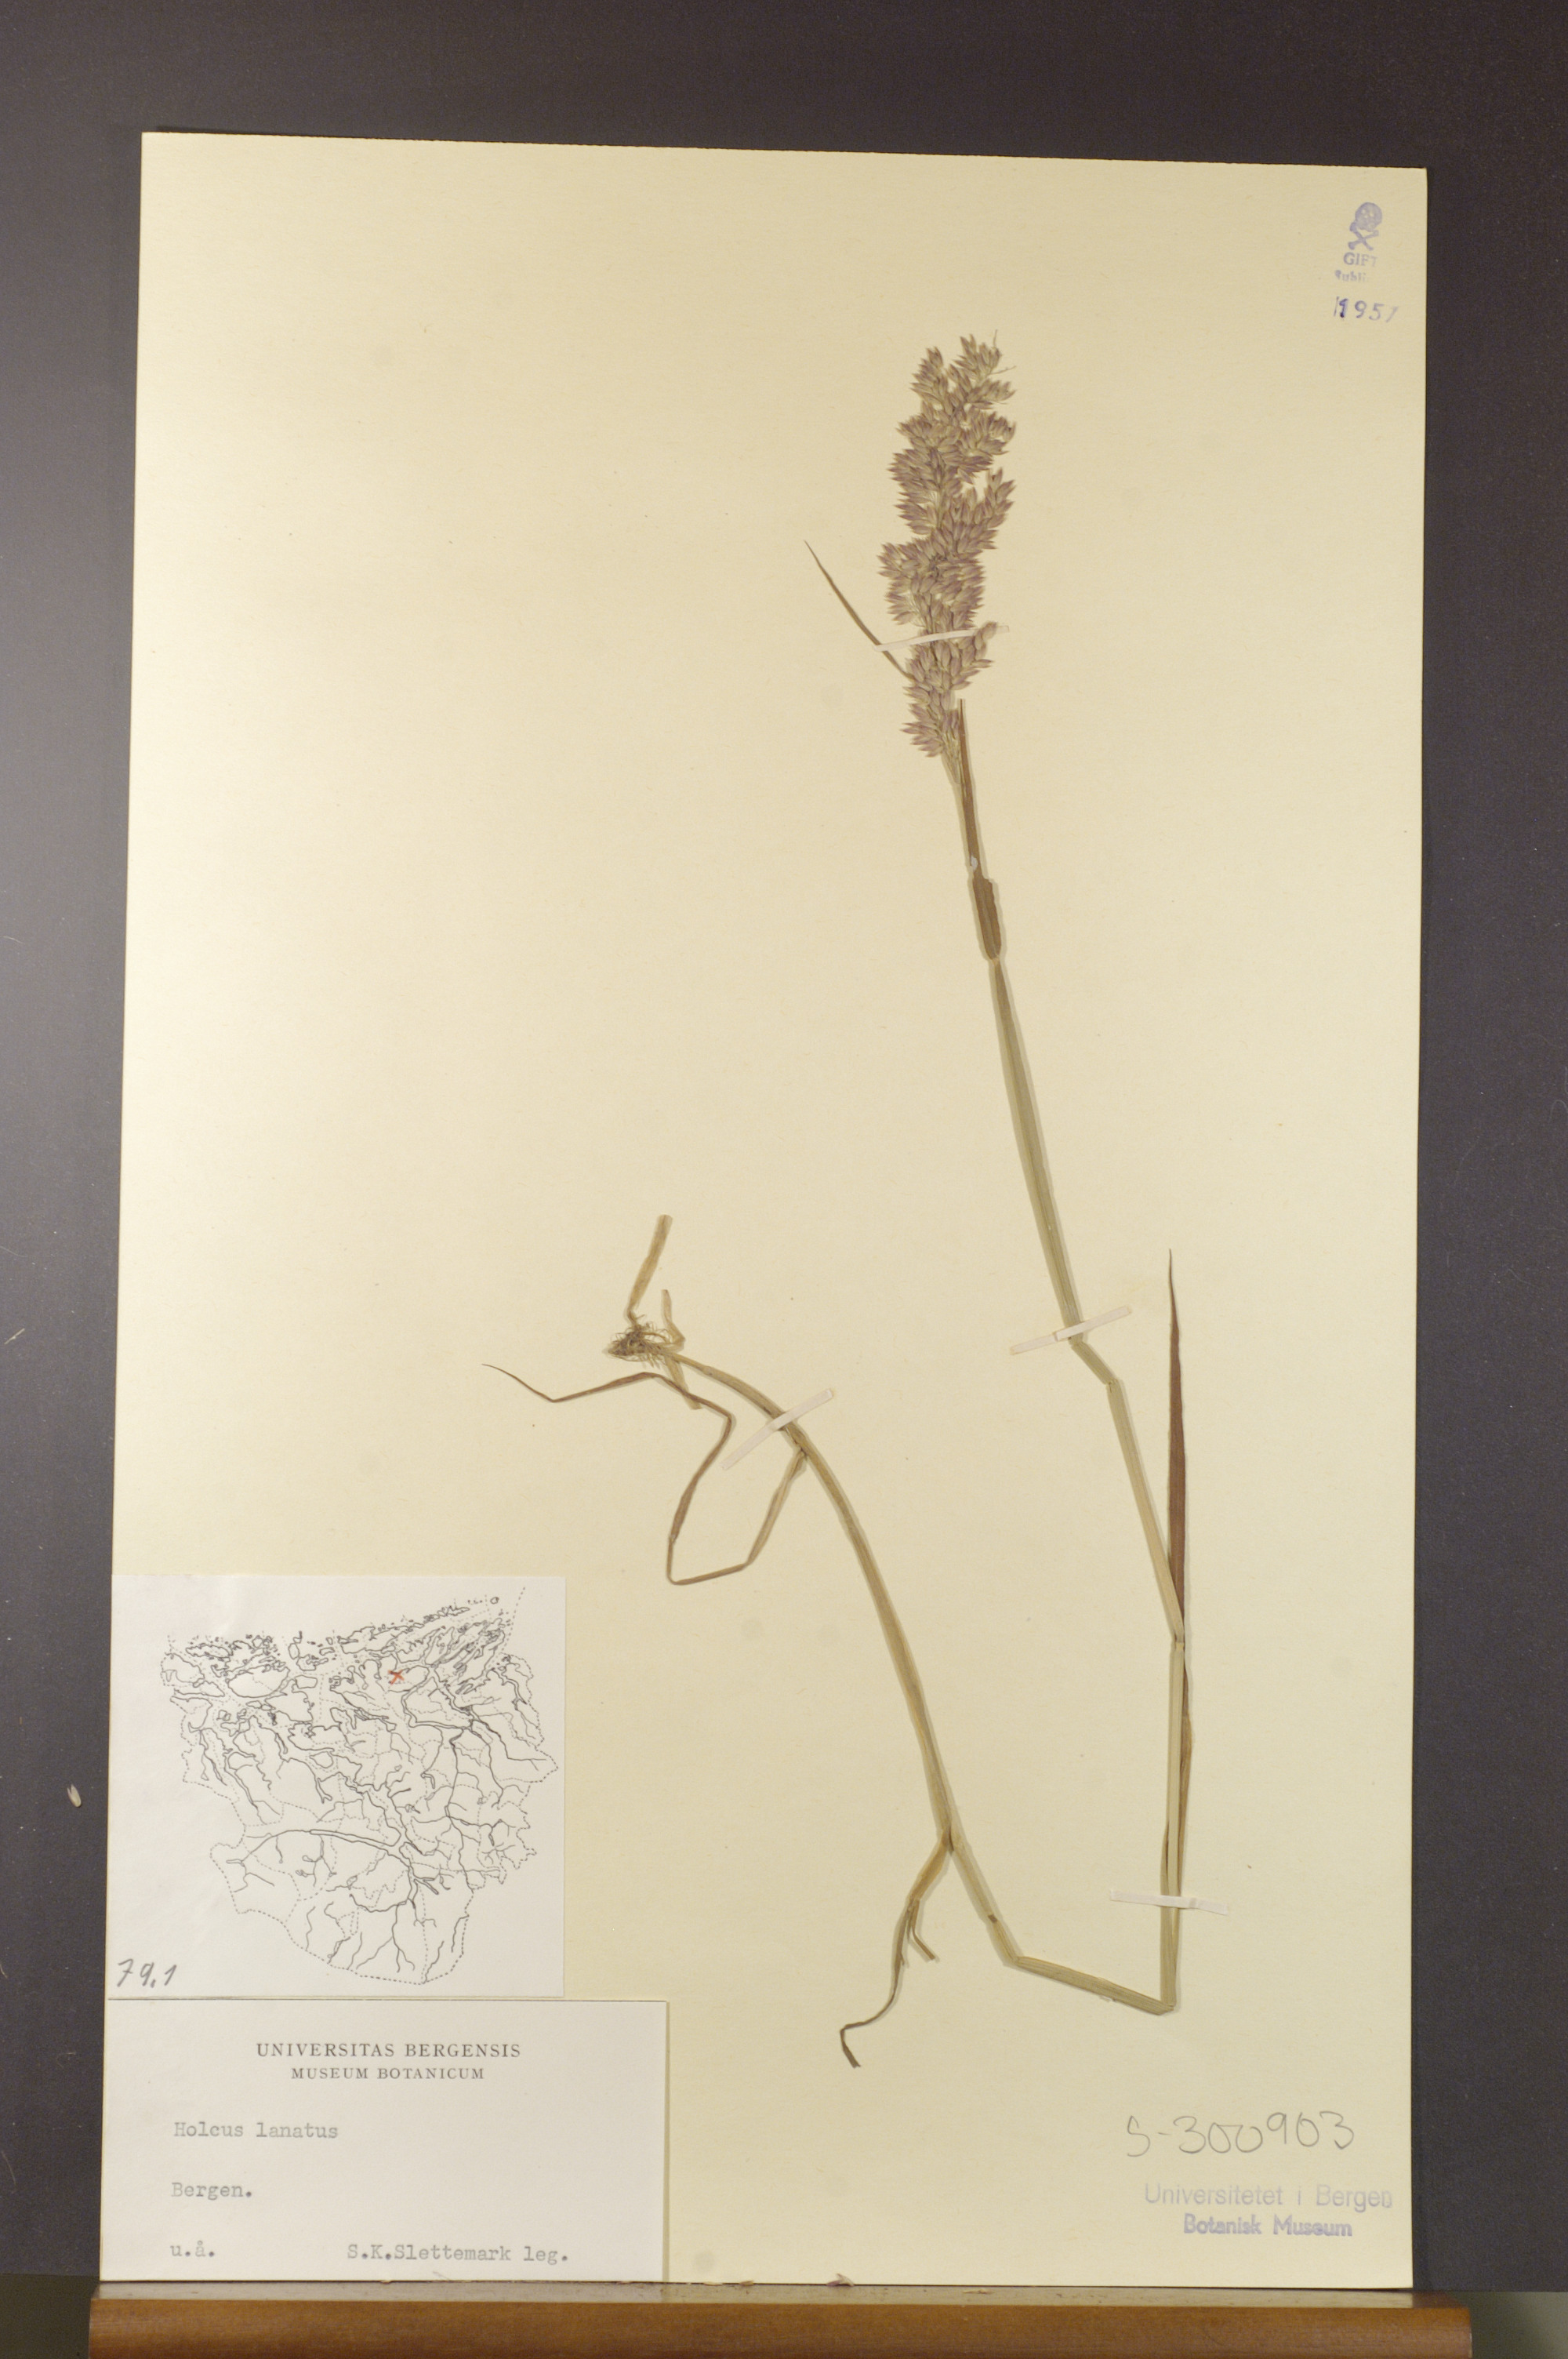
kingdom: Plantae
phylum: Tracheophyta
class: Liliopsida
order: Poales
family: Poaceae
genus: Holcus
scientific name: Holcus lanatus
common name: Yorkshire-fog
